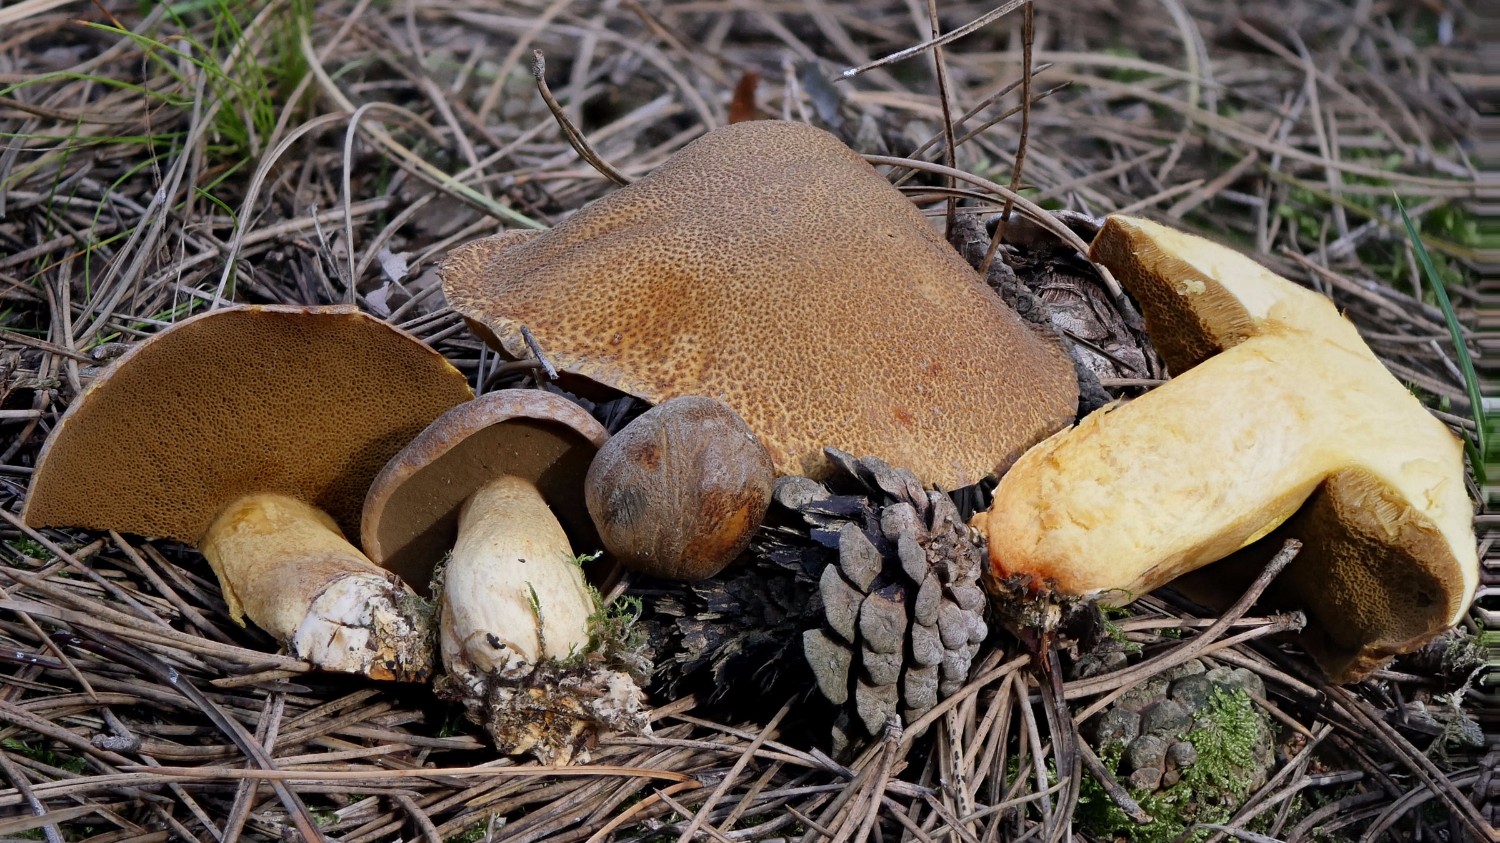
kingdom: Fungi
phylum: Basidiomycota
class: Agaricomycetes
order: Boletales
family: Suillaceae
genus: Suillus
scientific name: Suillus variegatus
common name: broget slimrørhat
